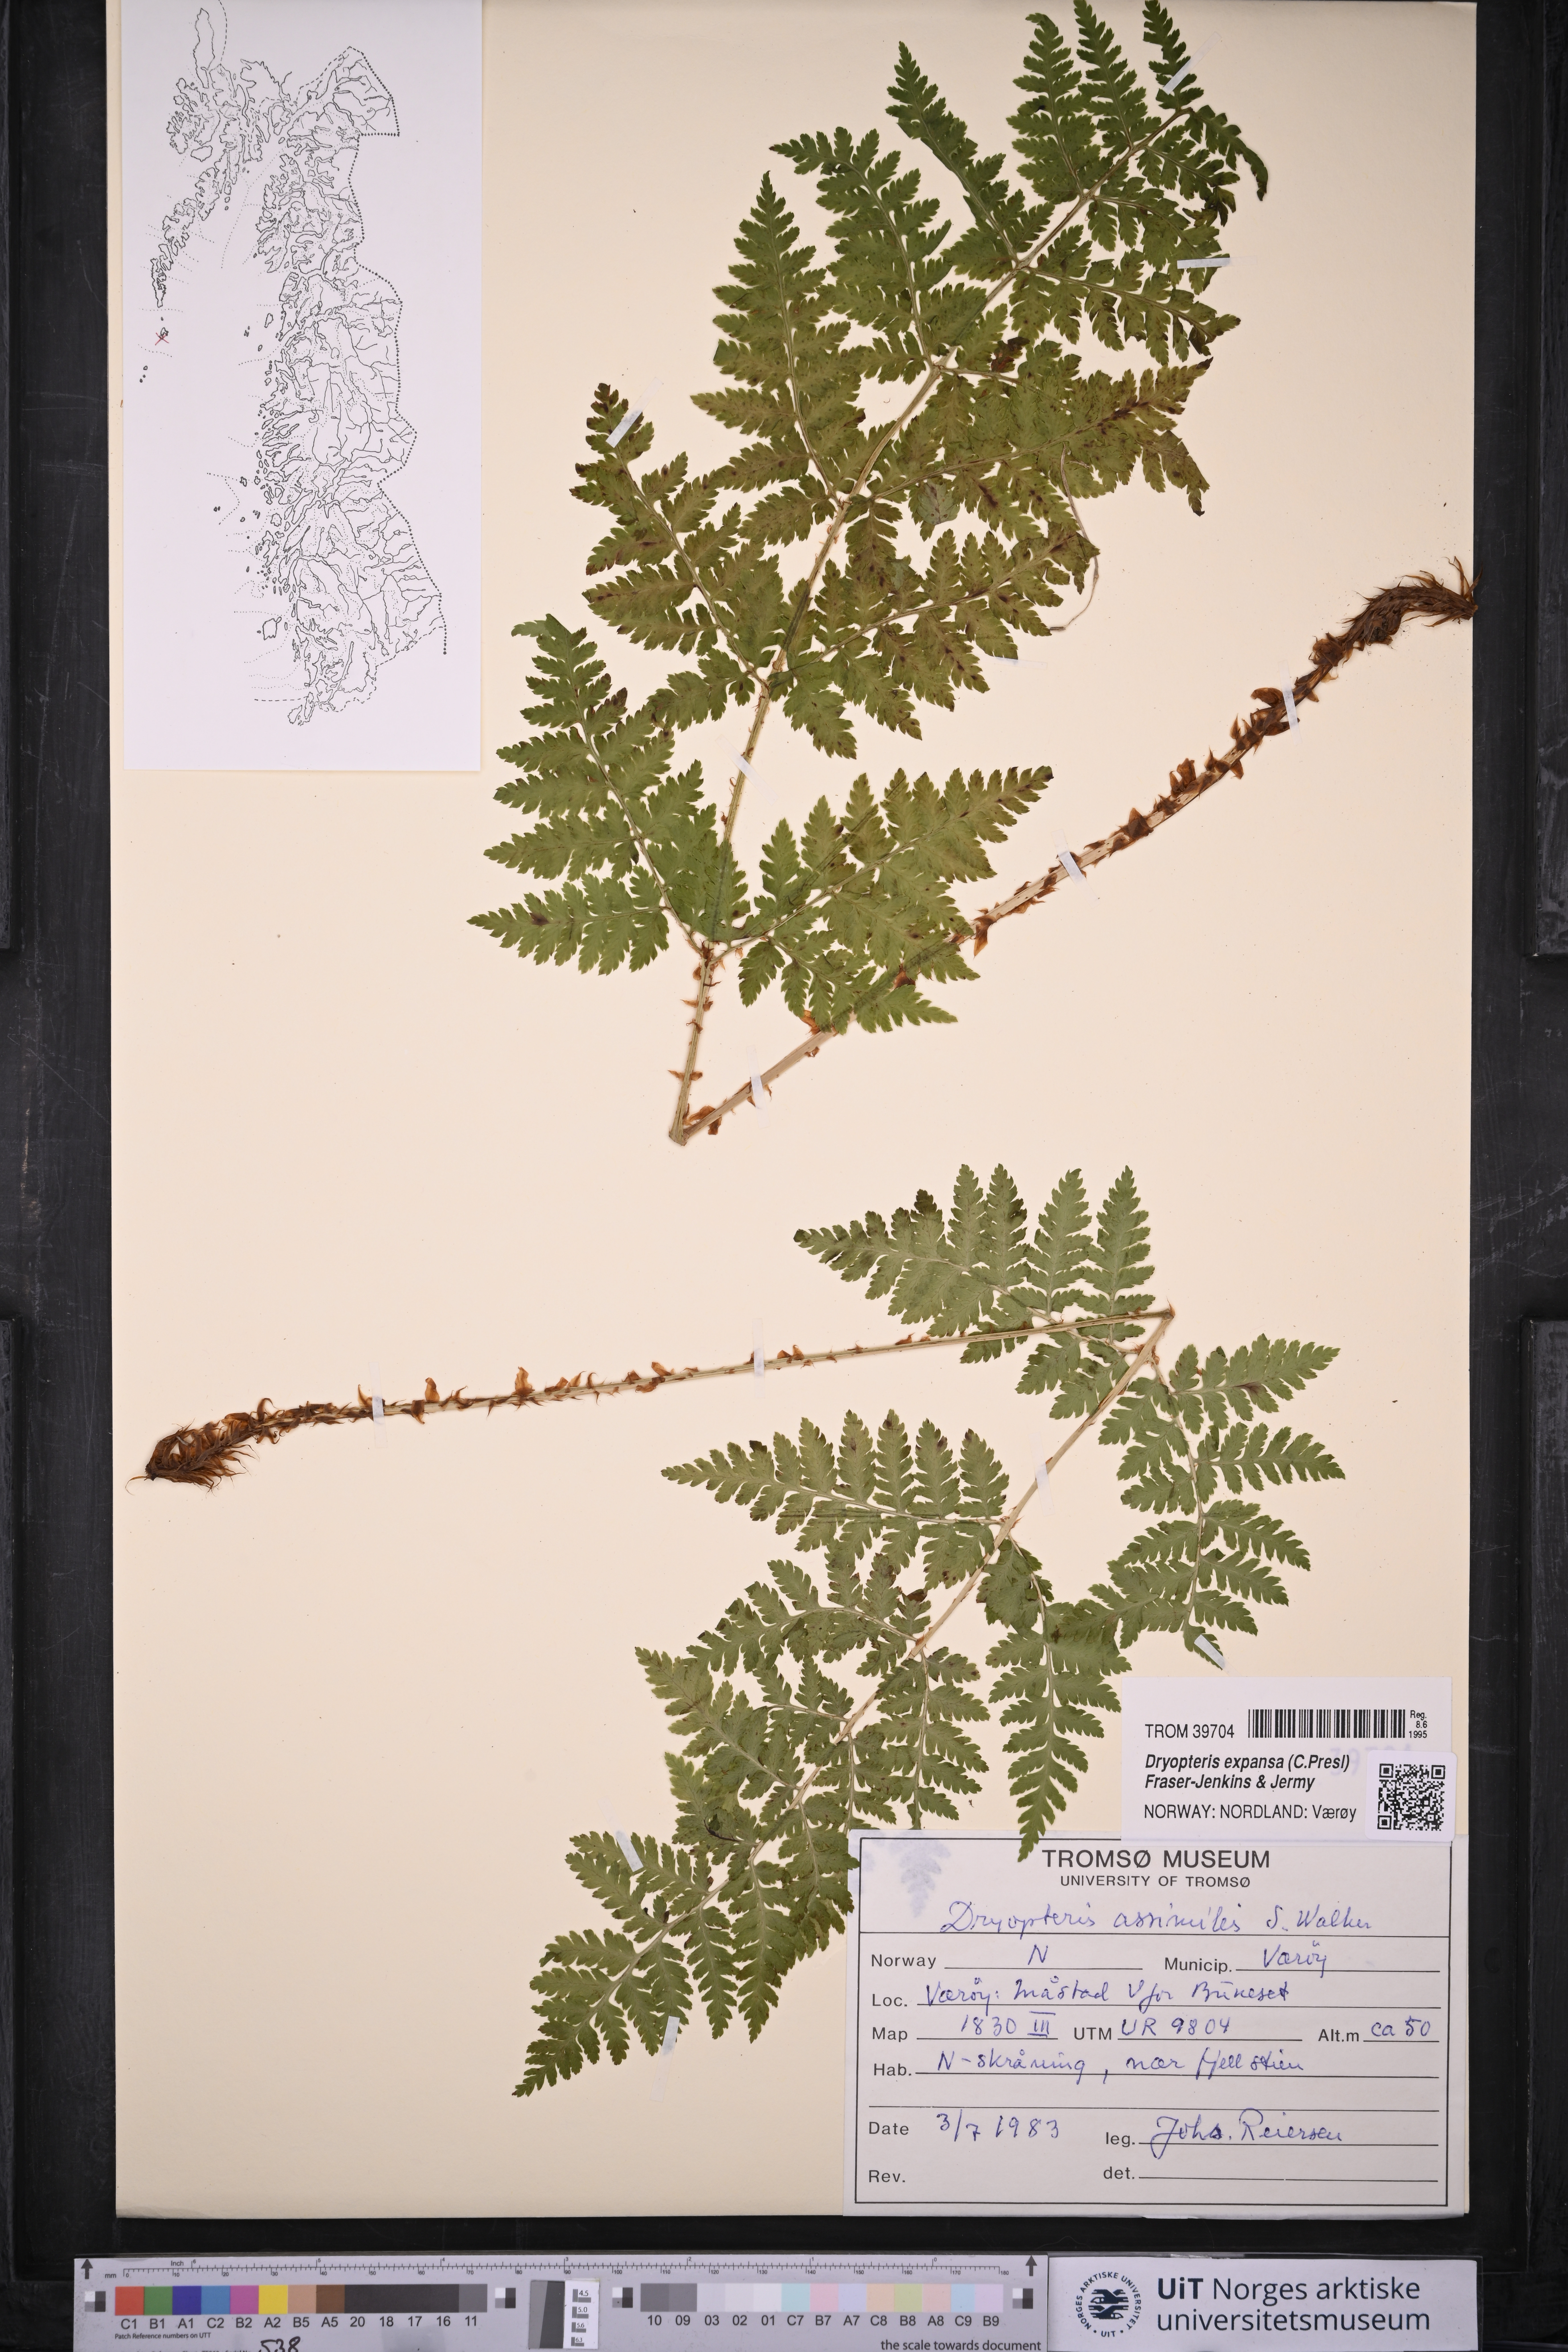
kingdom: Plantae
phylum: Tracheophyta
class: Polypodiopsida
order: Polypodiales
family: Dryopteridaceae
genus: Dryopteris
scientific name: Dryopteris expansa
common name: Northern buckler fern
